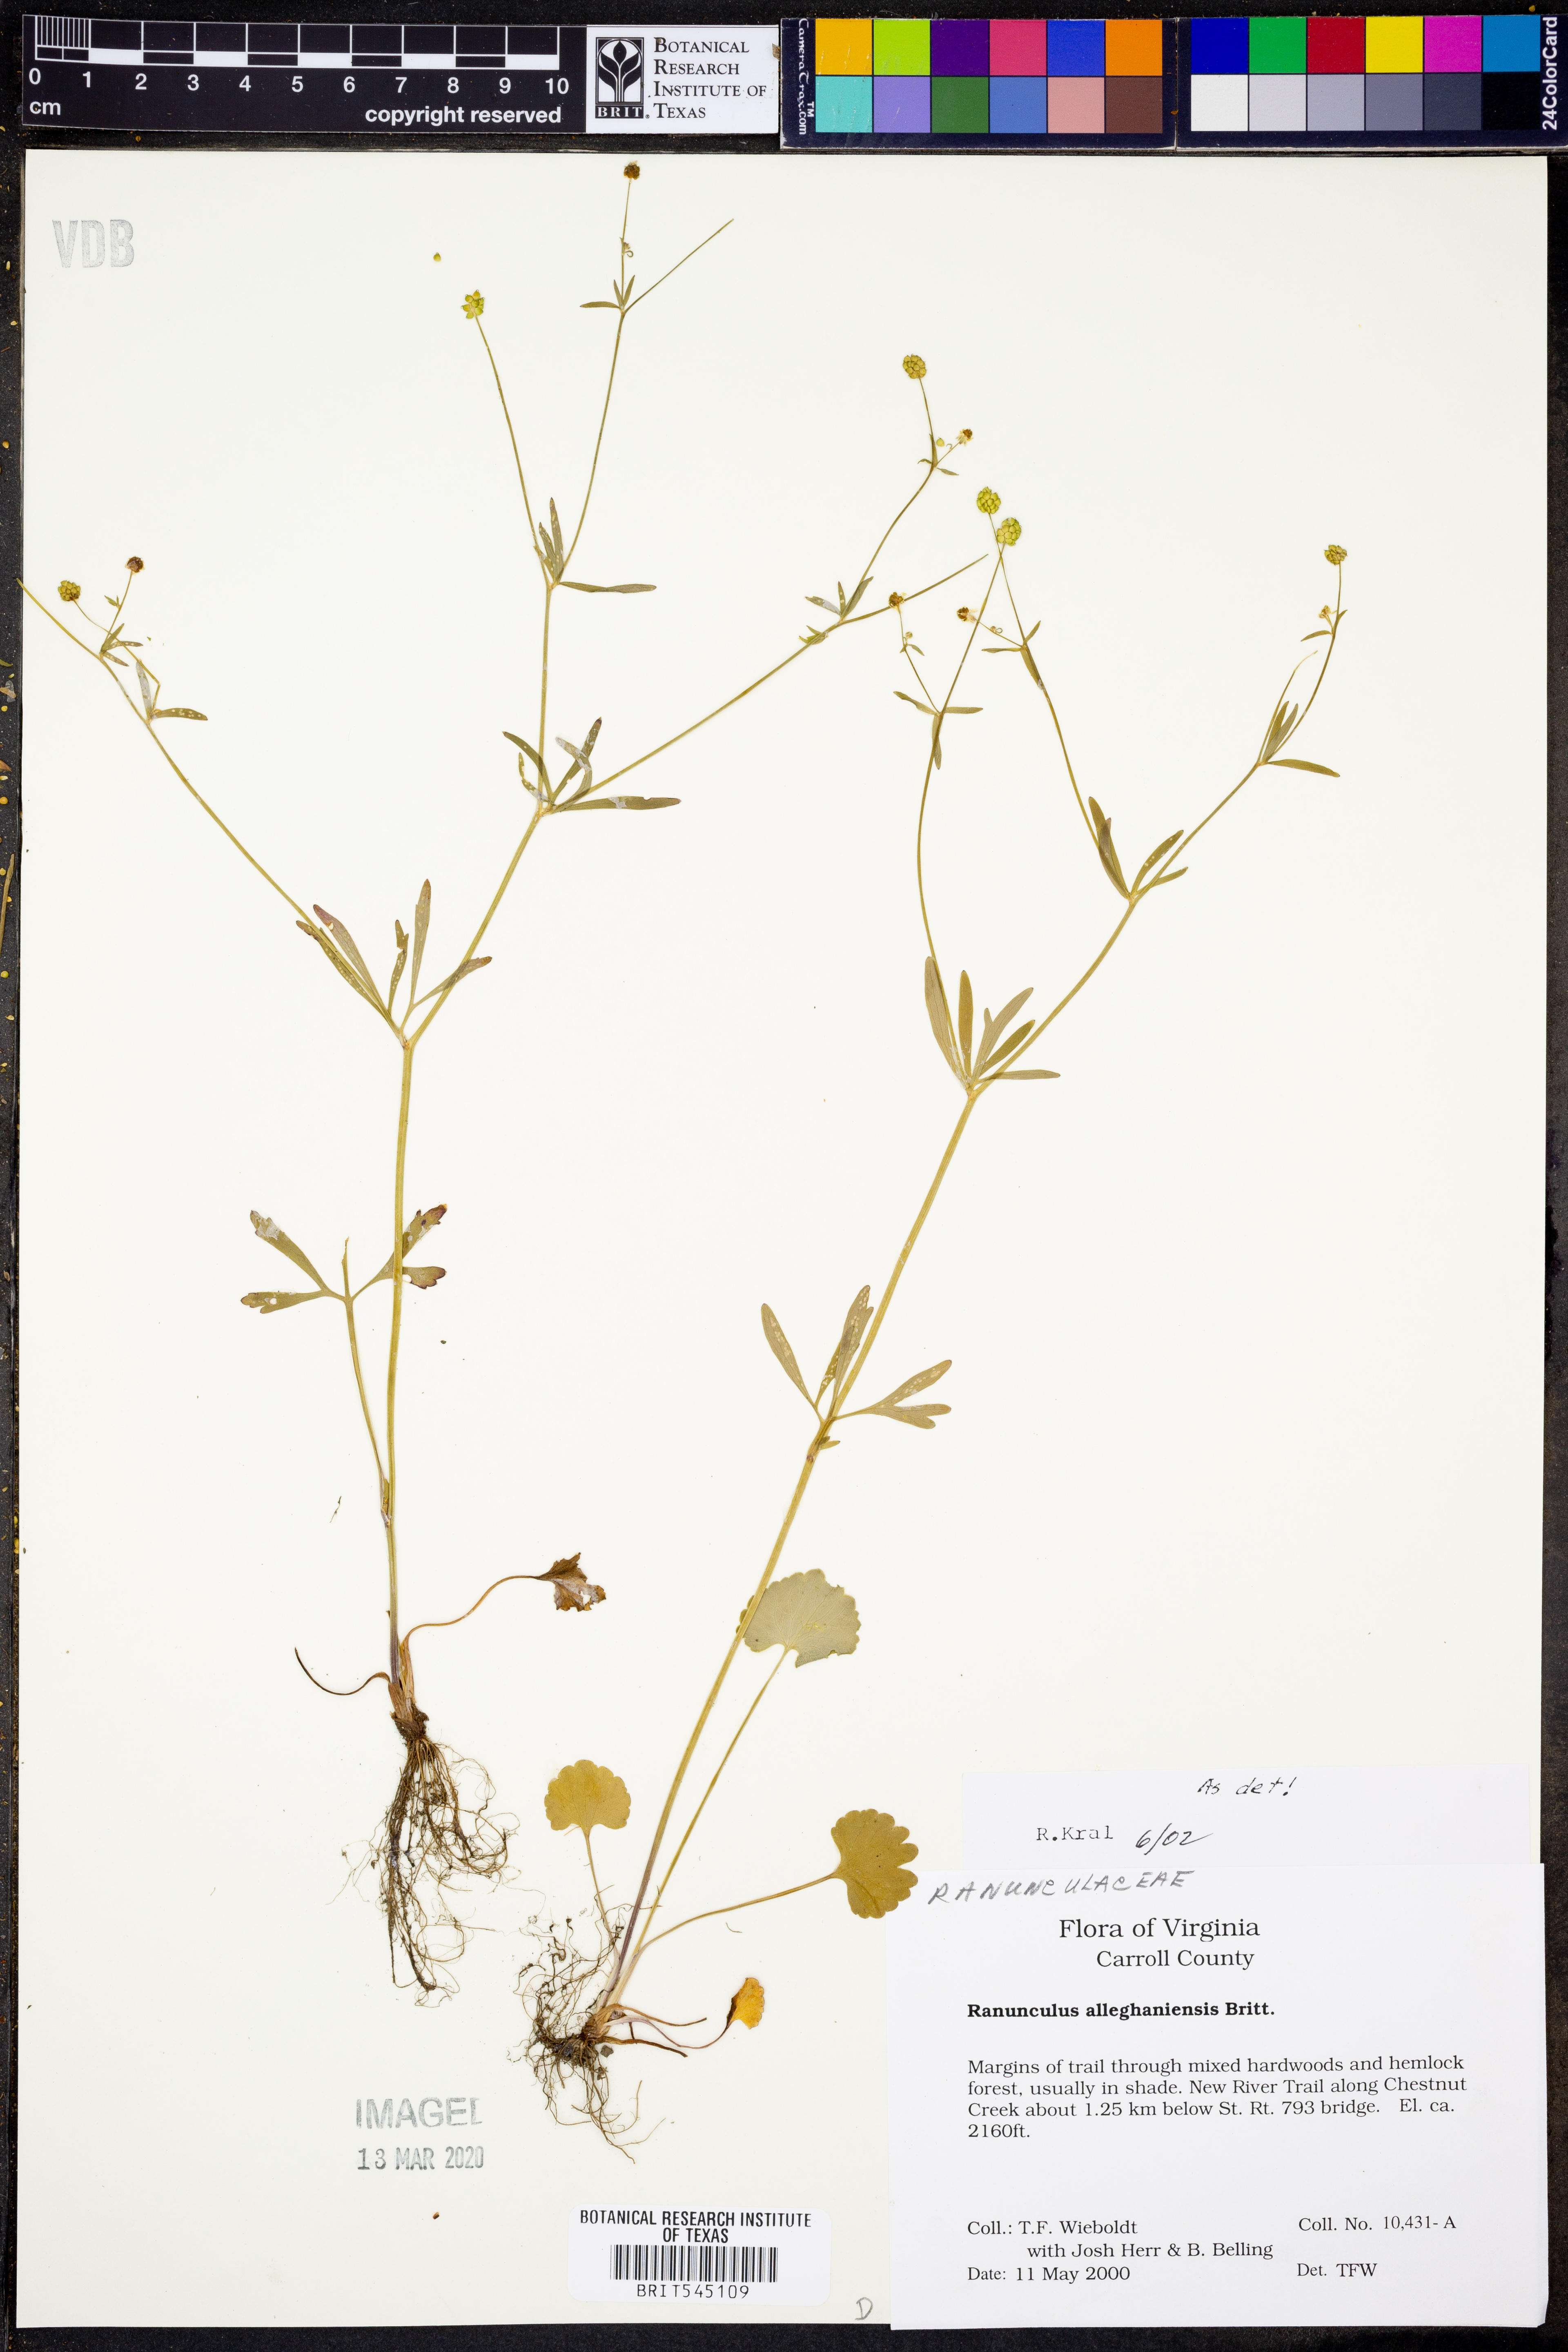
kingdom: Plantae
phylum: Tracheophyta
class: Magnoliopsida
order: Ranunculales
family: Ranunculaceae
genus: Ranunculus
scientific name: Ranunculus allegheniensis
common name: Allegheny mountain buttercup
